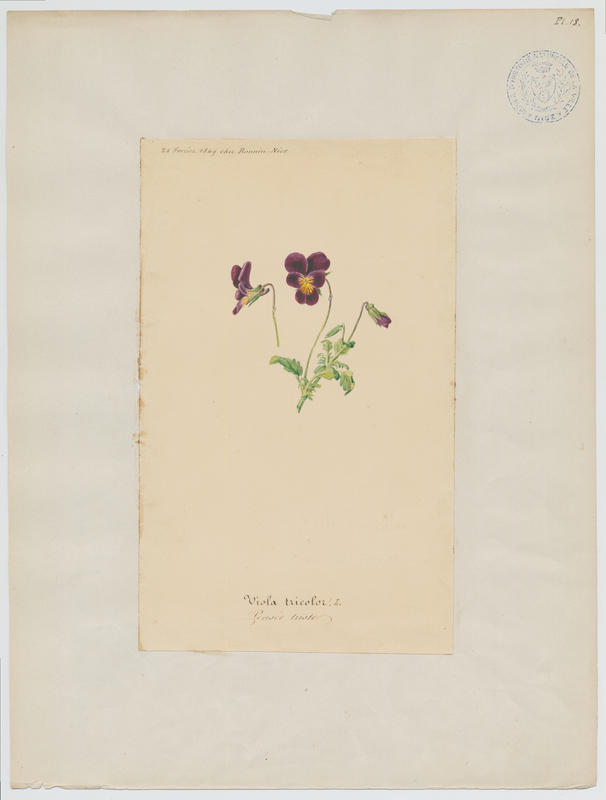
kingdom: Plantae
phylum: Tracheophyta
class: Magnoliopsida
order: Malpighiales
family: Violaceae
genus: Viola
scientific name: Viola tricolor
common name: Pansy
